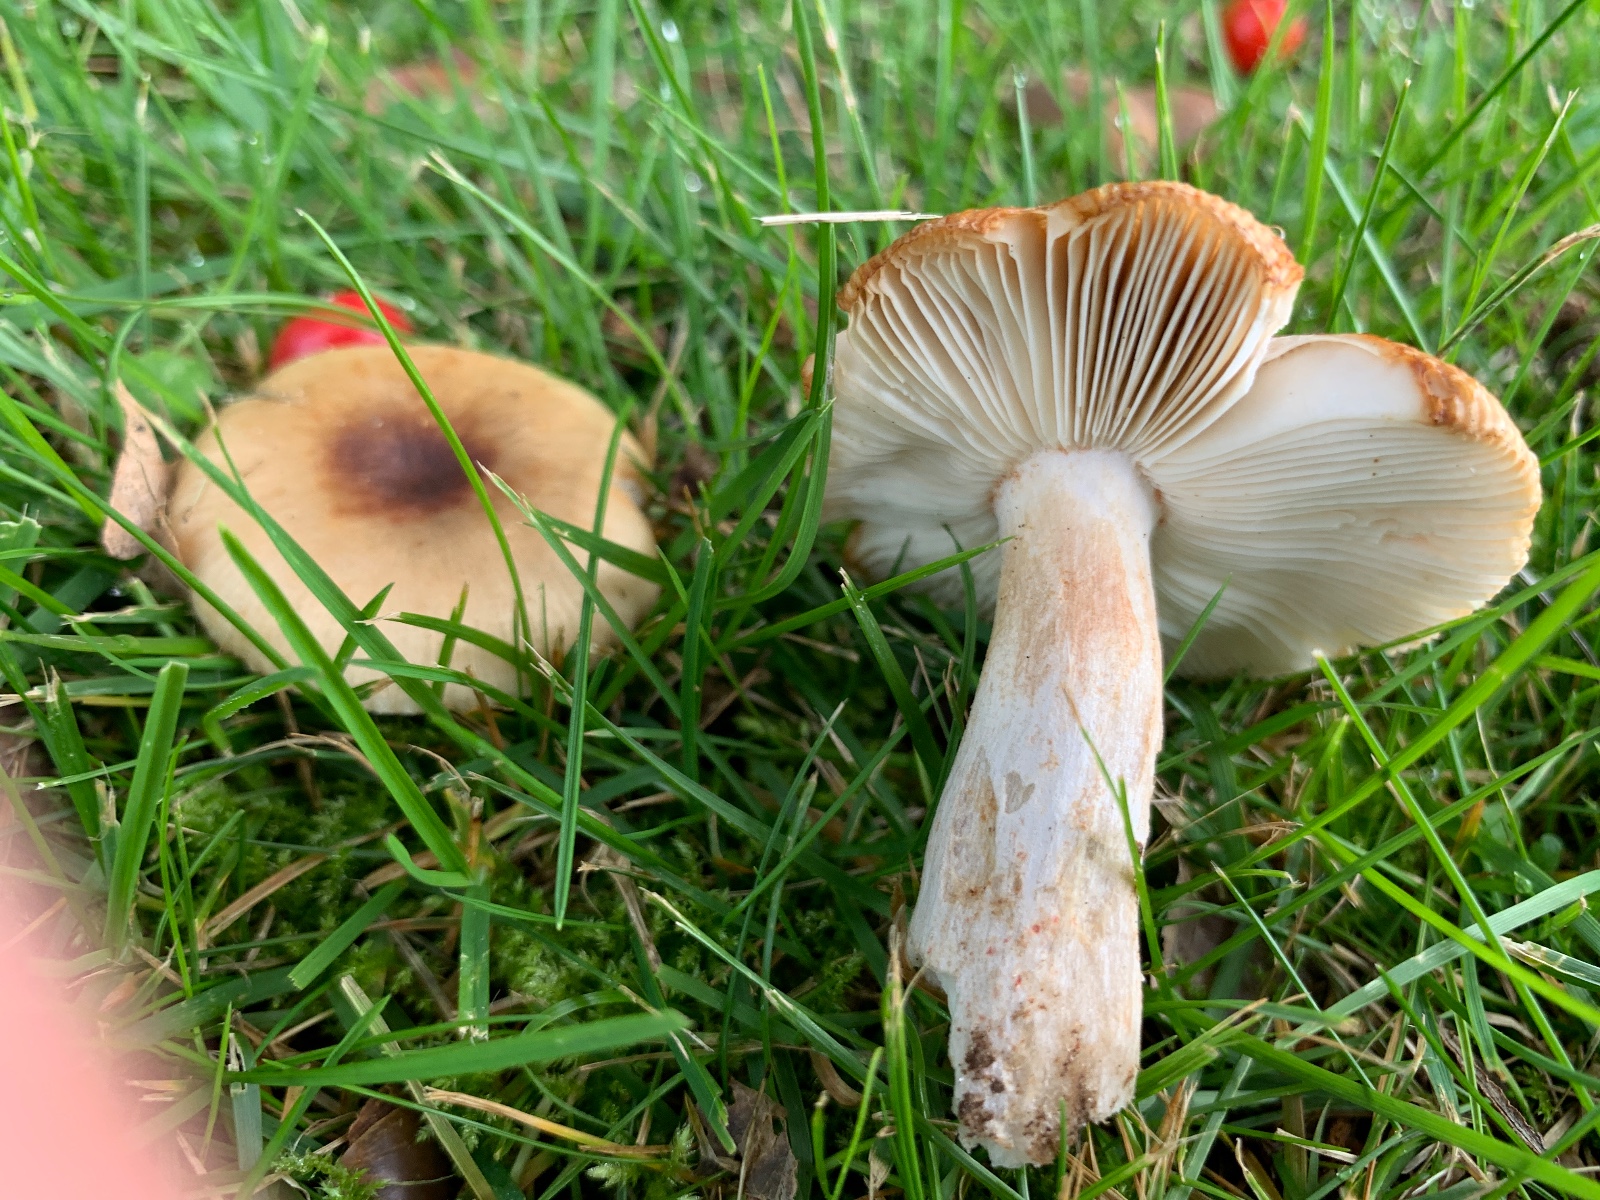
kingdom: Fungi
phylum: Basidiomycota
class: Agaricomycetes
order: Russulales
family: Russulaceae
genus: Russula
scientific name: Russula recondita
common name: mild kam-skørhat
